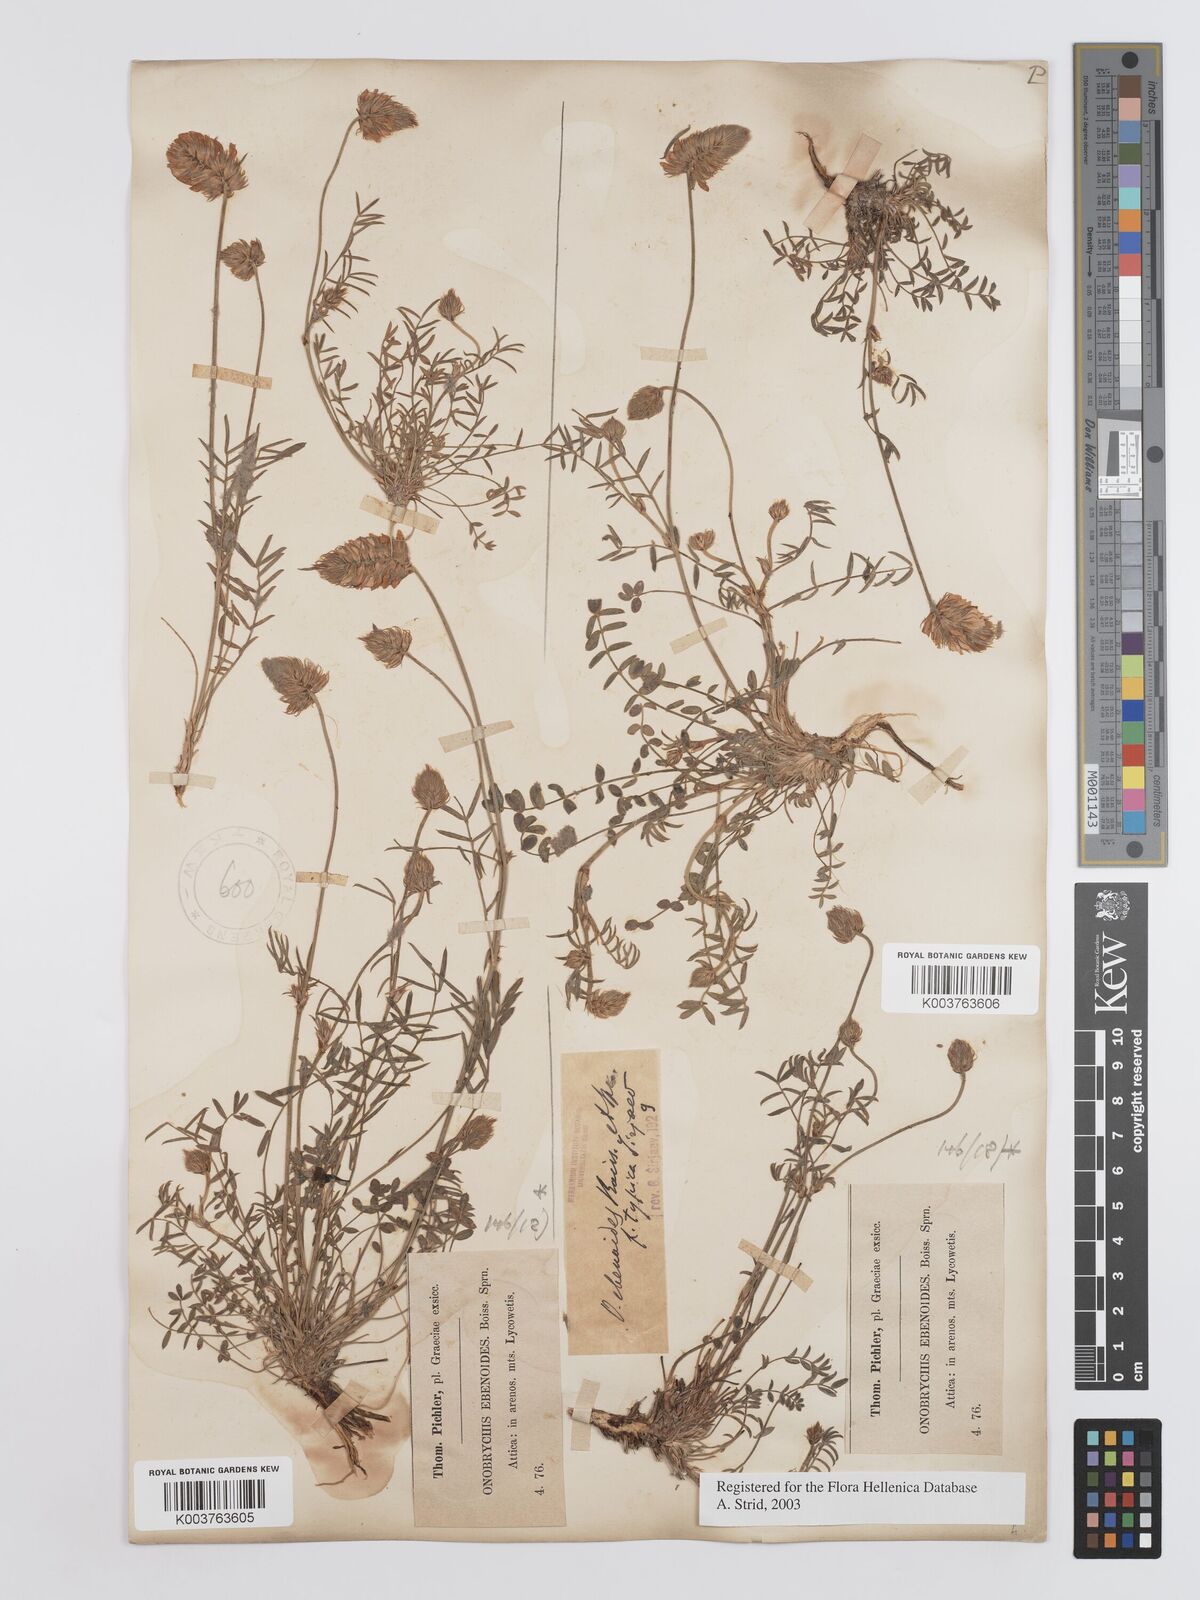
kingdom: Plantae
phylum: Tracheophyta
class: Magnoliopsida
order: Fabales
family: Fabaceae
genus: Onobrychis
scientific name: Onobrychis ebenoides
